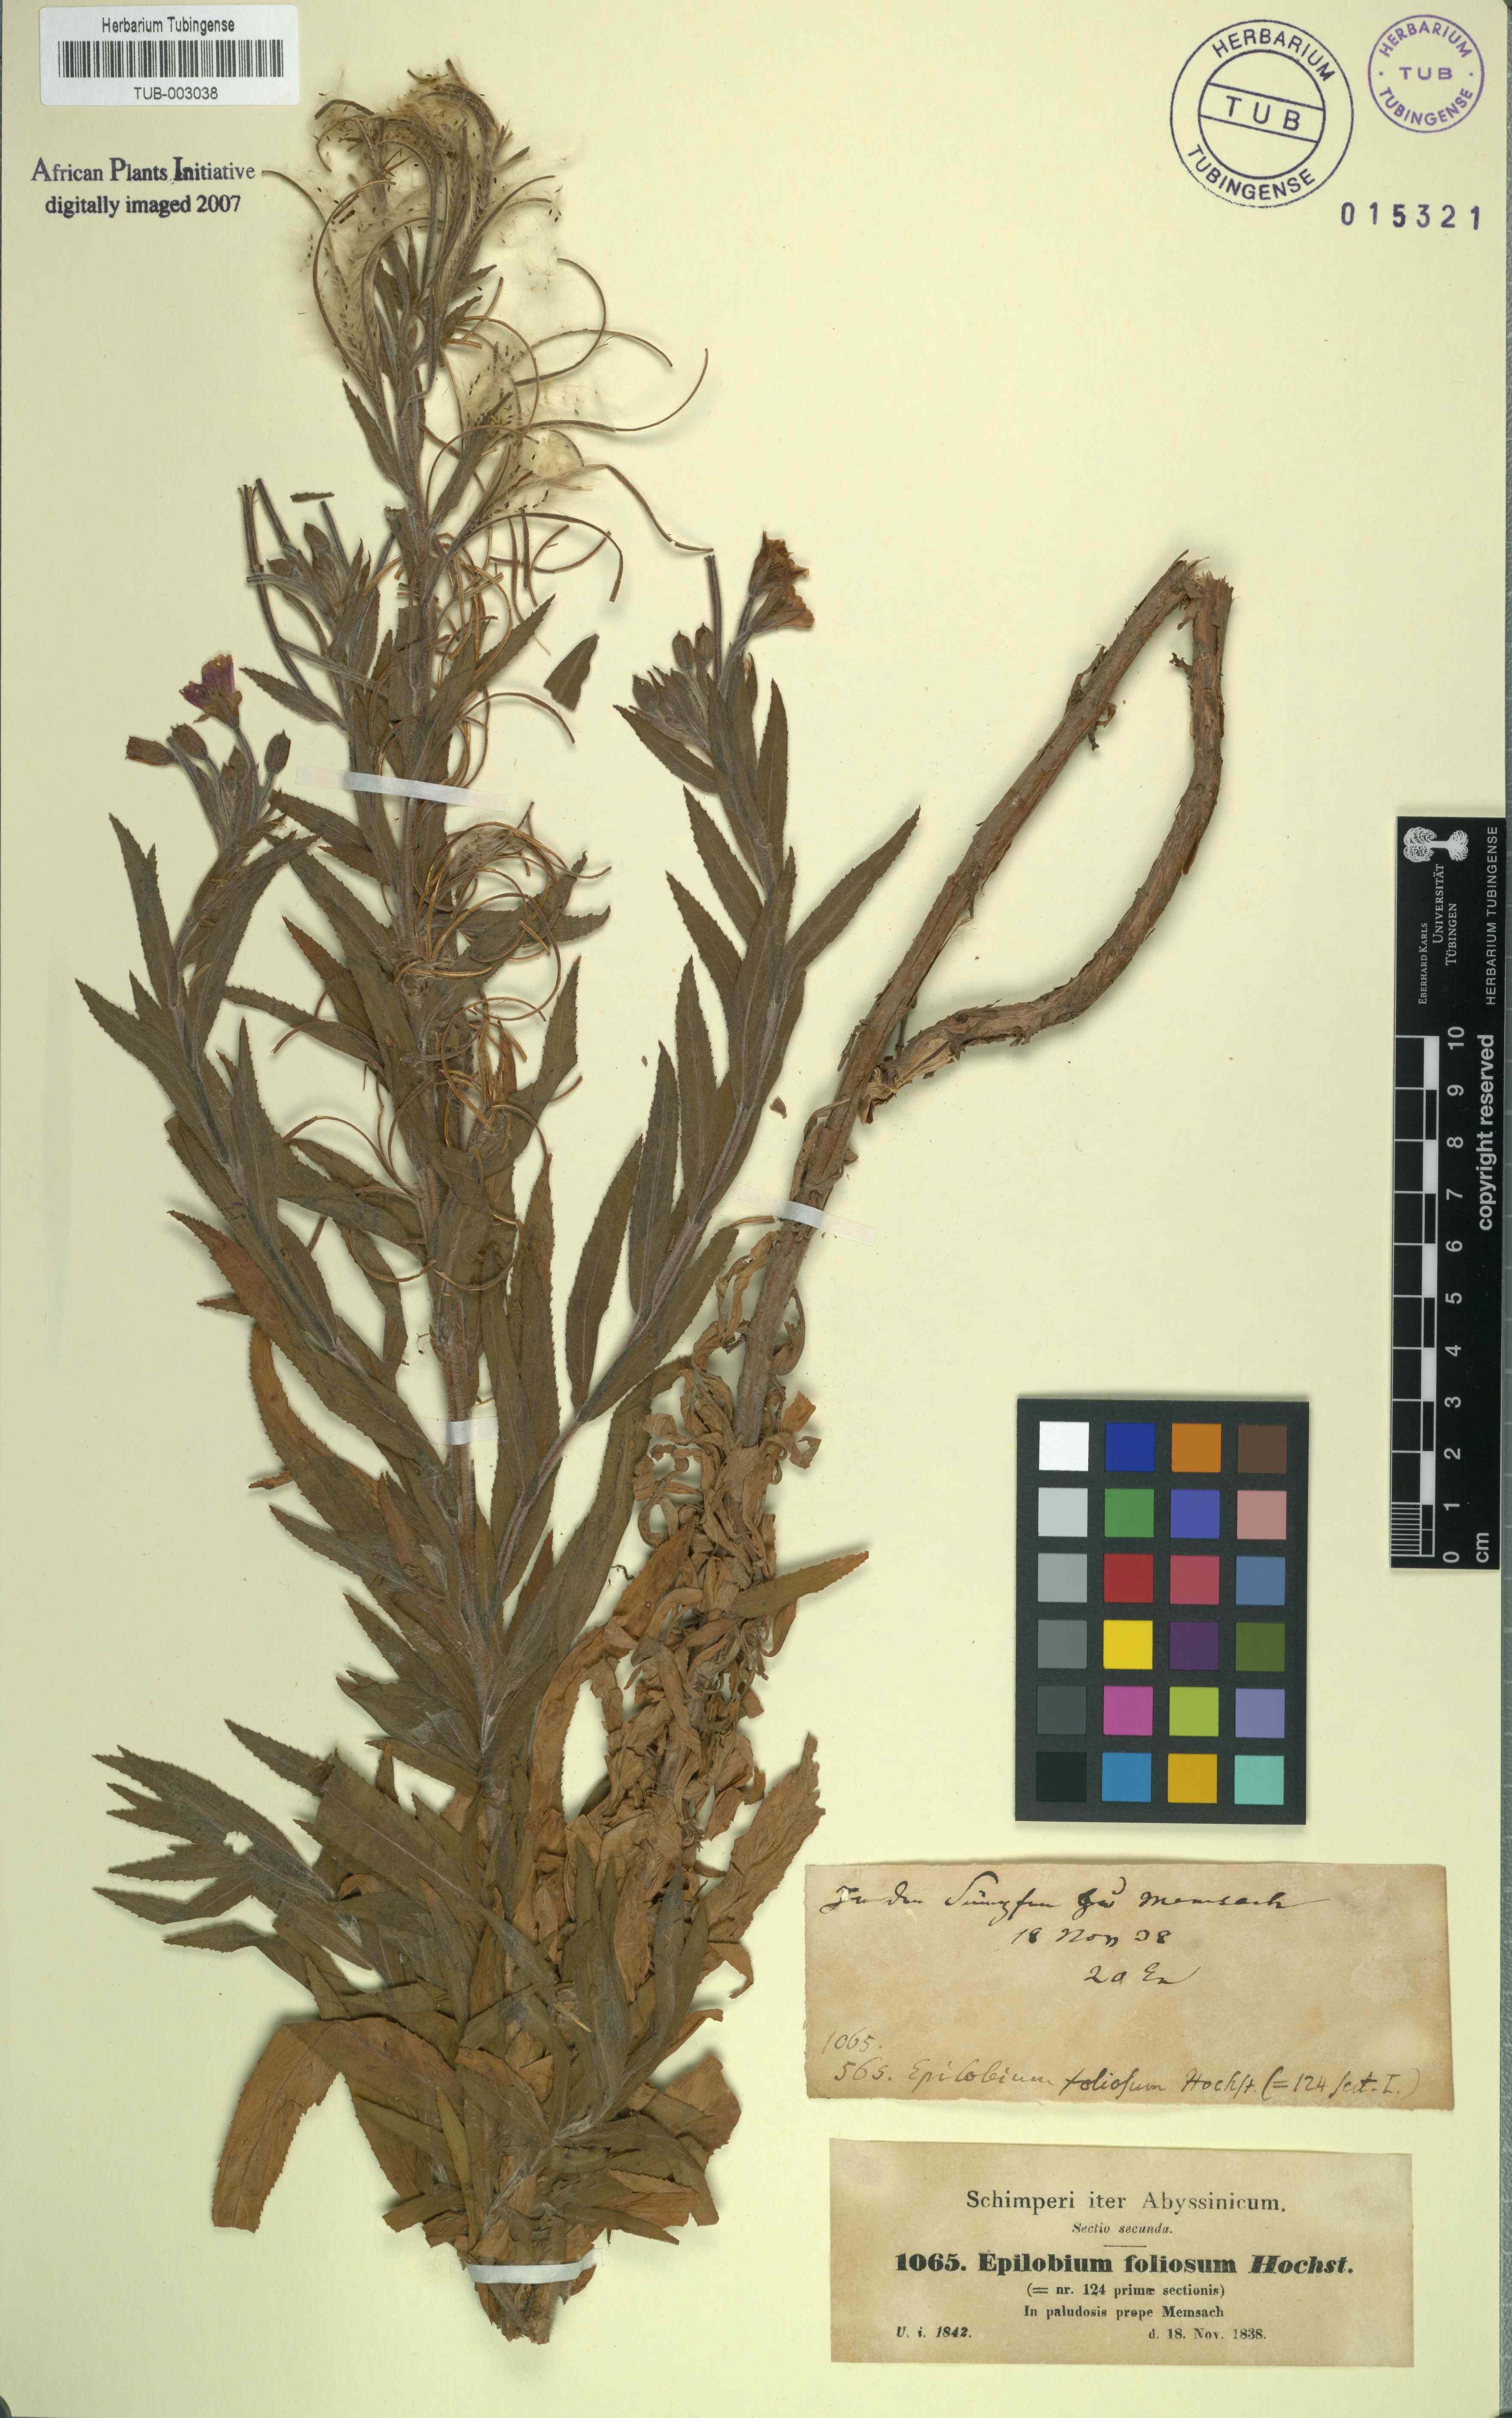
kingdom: Plantae
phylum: Tracheophyta
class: Magnoliopsida
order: Myrtales
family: Onagraceae
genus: Epilobium
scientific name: Epilobium hirsutum
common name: Great willowherb
